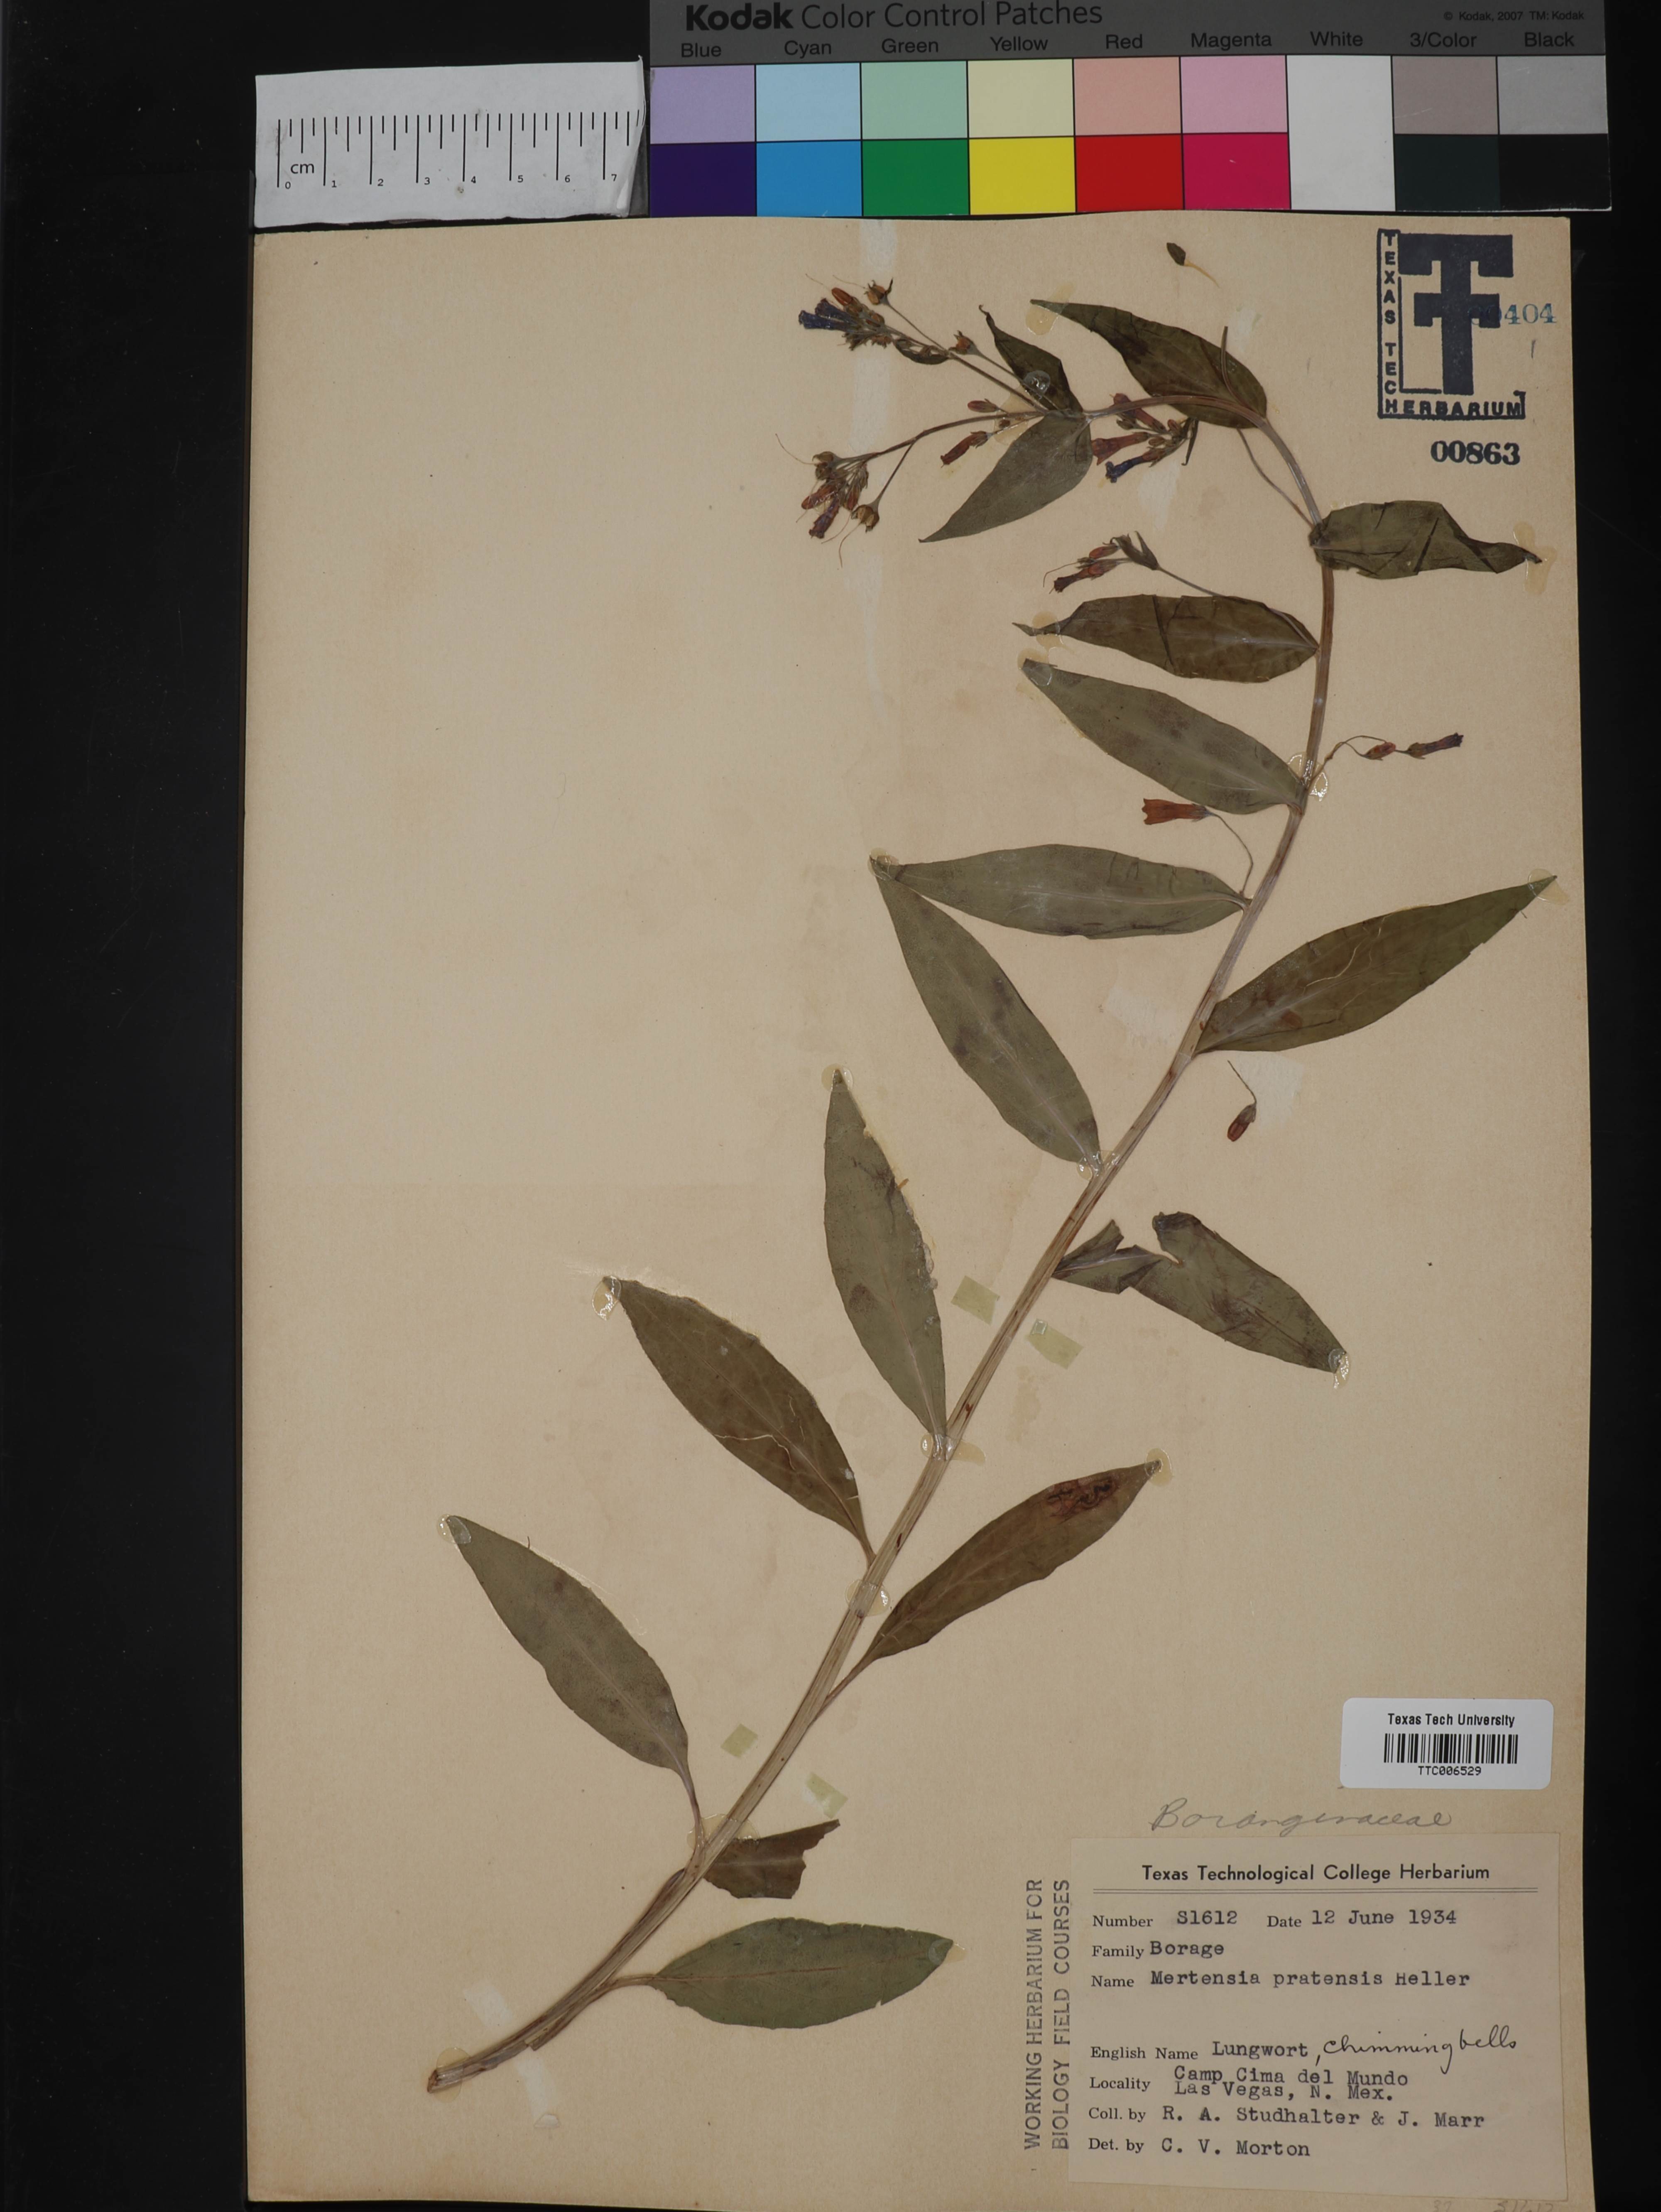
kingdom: Plantae
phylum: Tracheophyta
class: Magnoliopsida
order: Boraginales
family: Boraginaceae
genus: Mertensia
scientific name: Mertensia pratensis
